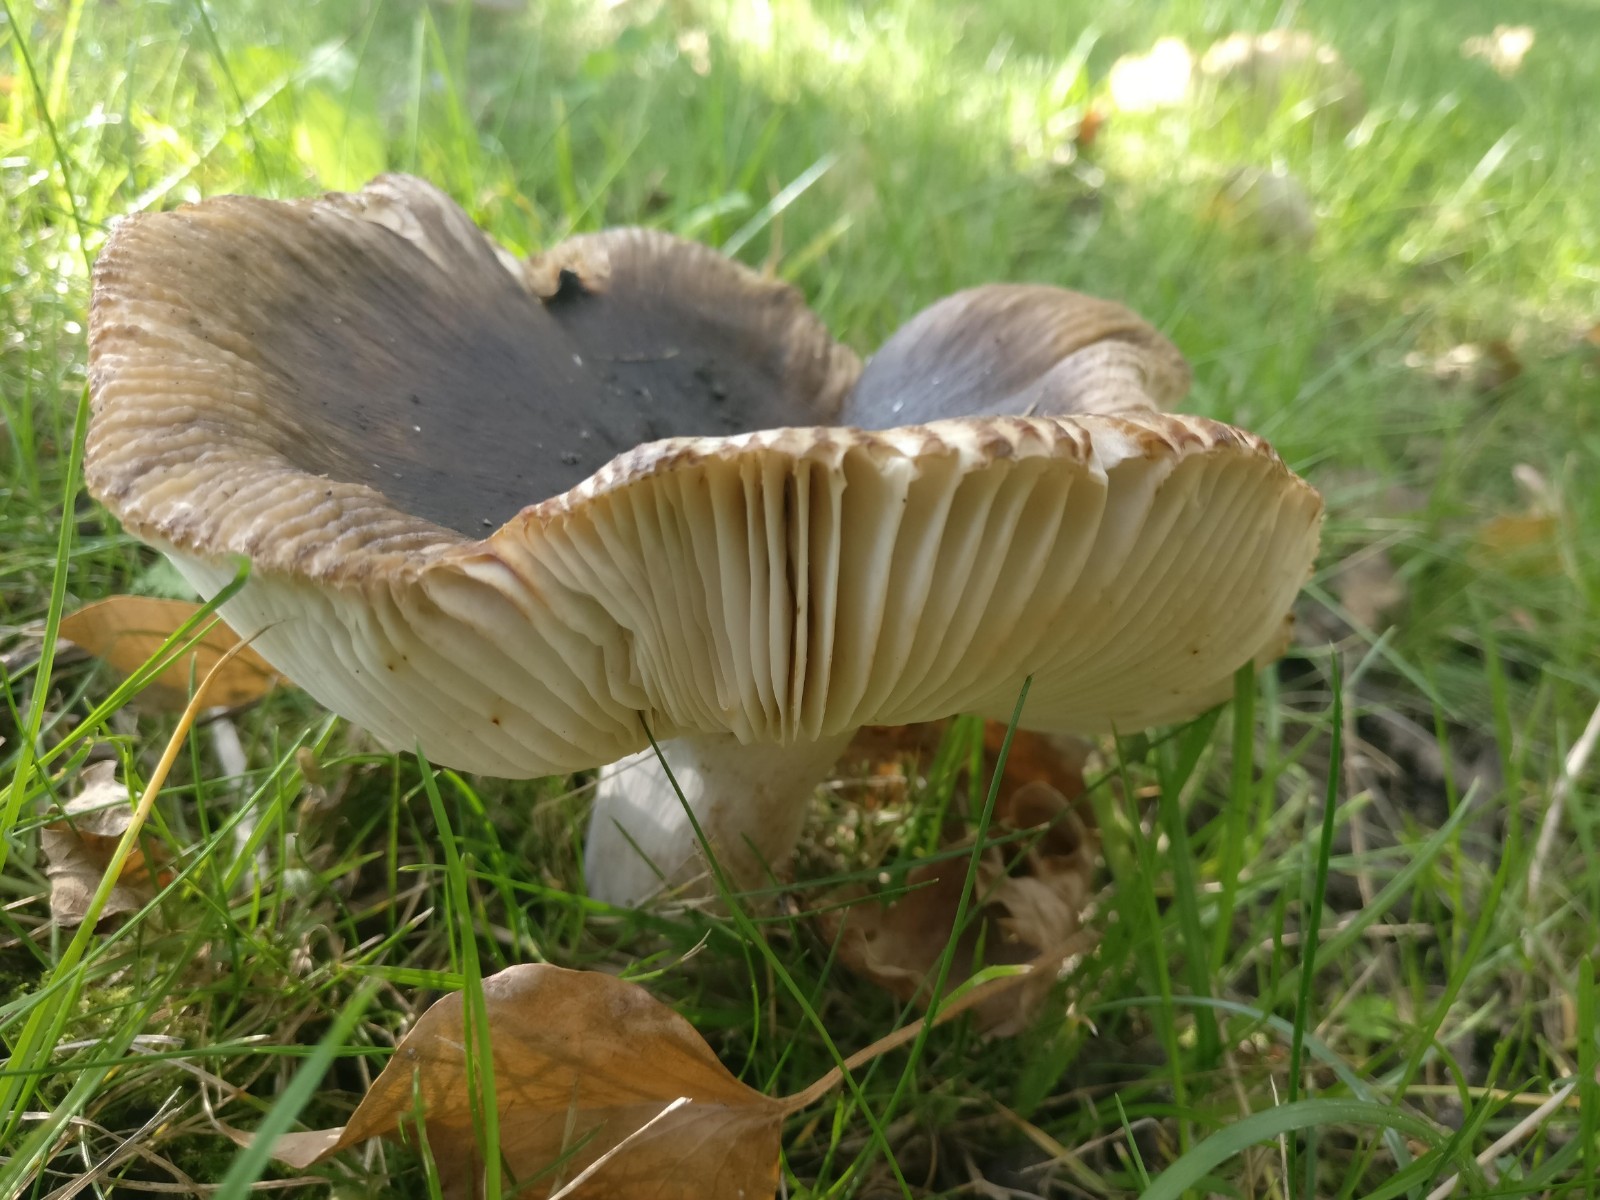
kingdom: Fungi
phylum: Basidiomycota
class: Agaricomycetes
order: Russulales
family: Russulaceae
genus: Russula
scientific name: Russula amoenolens
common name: skarp kam-skørhat
